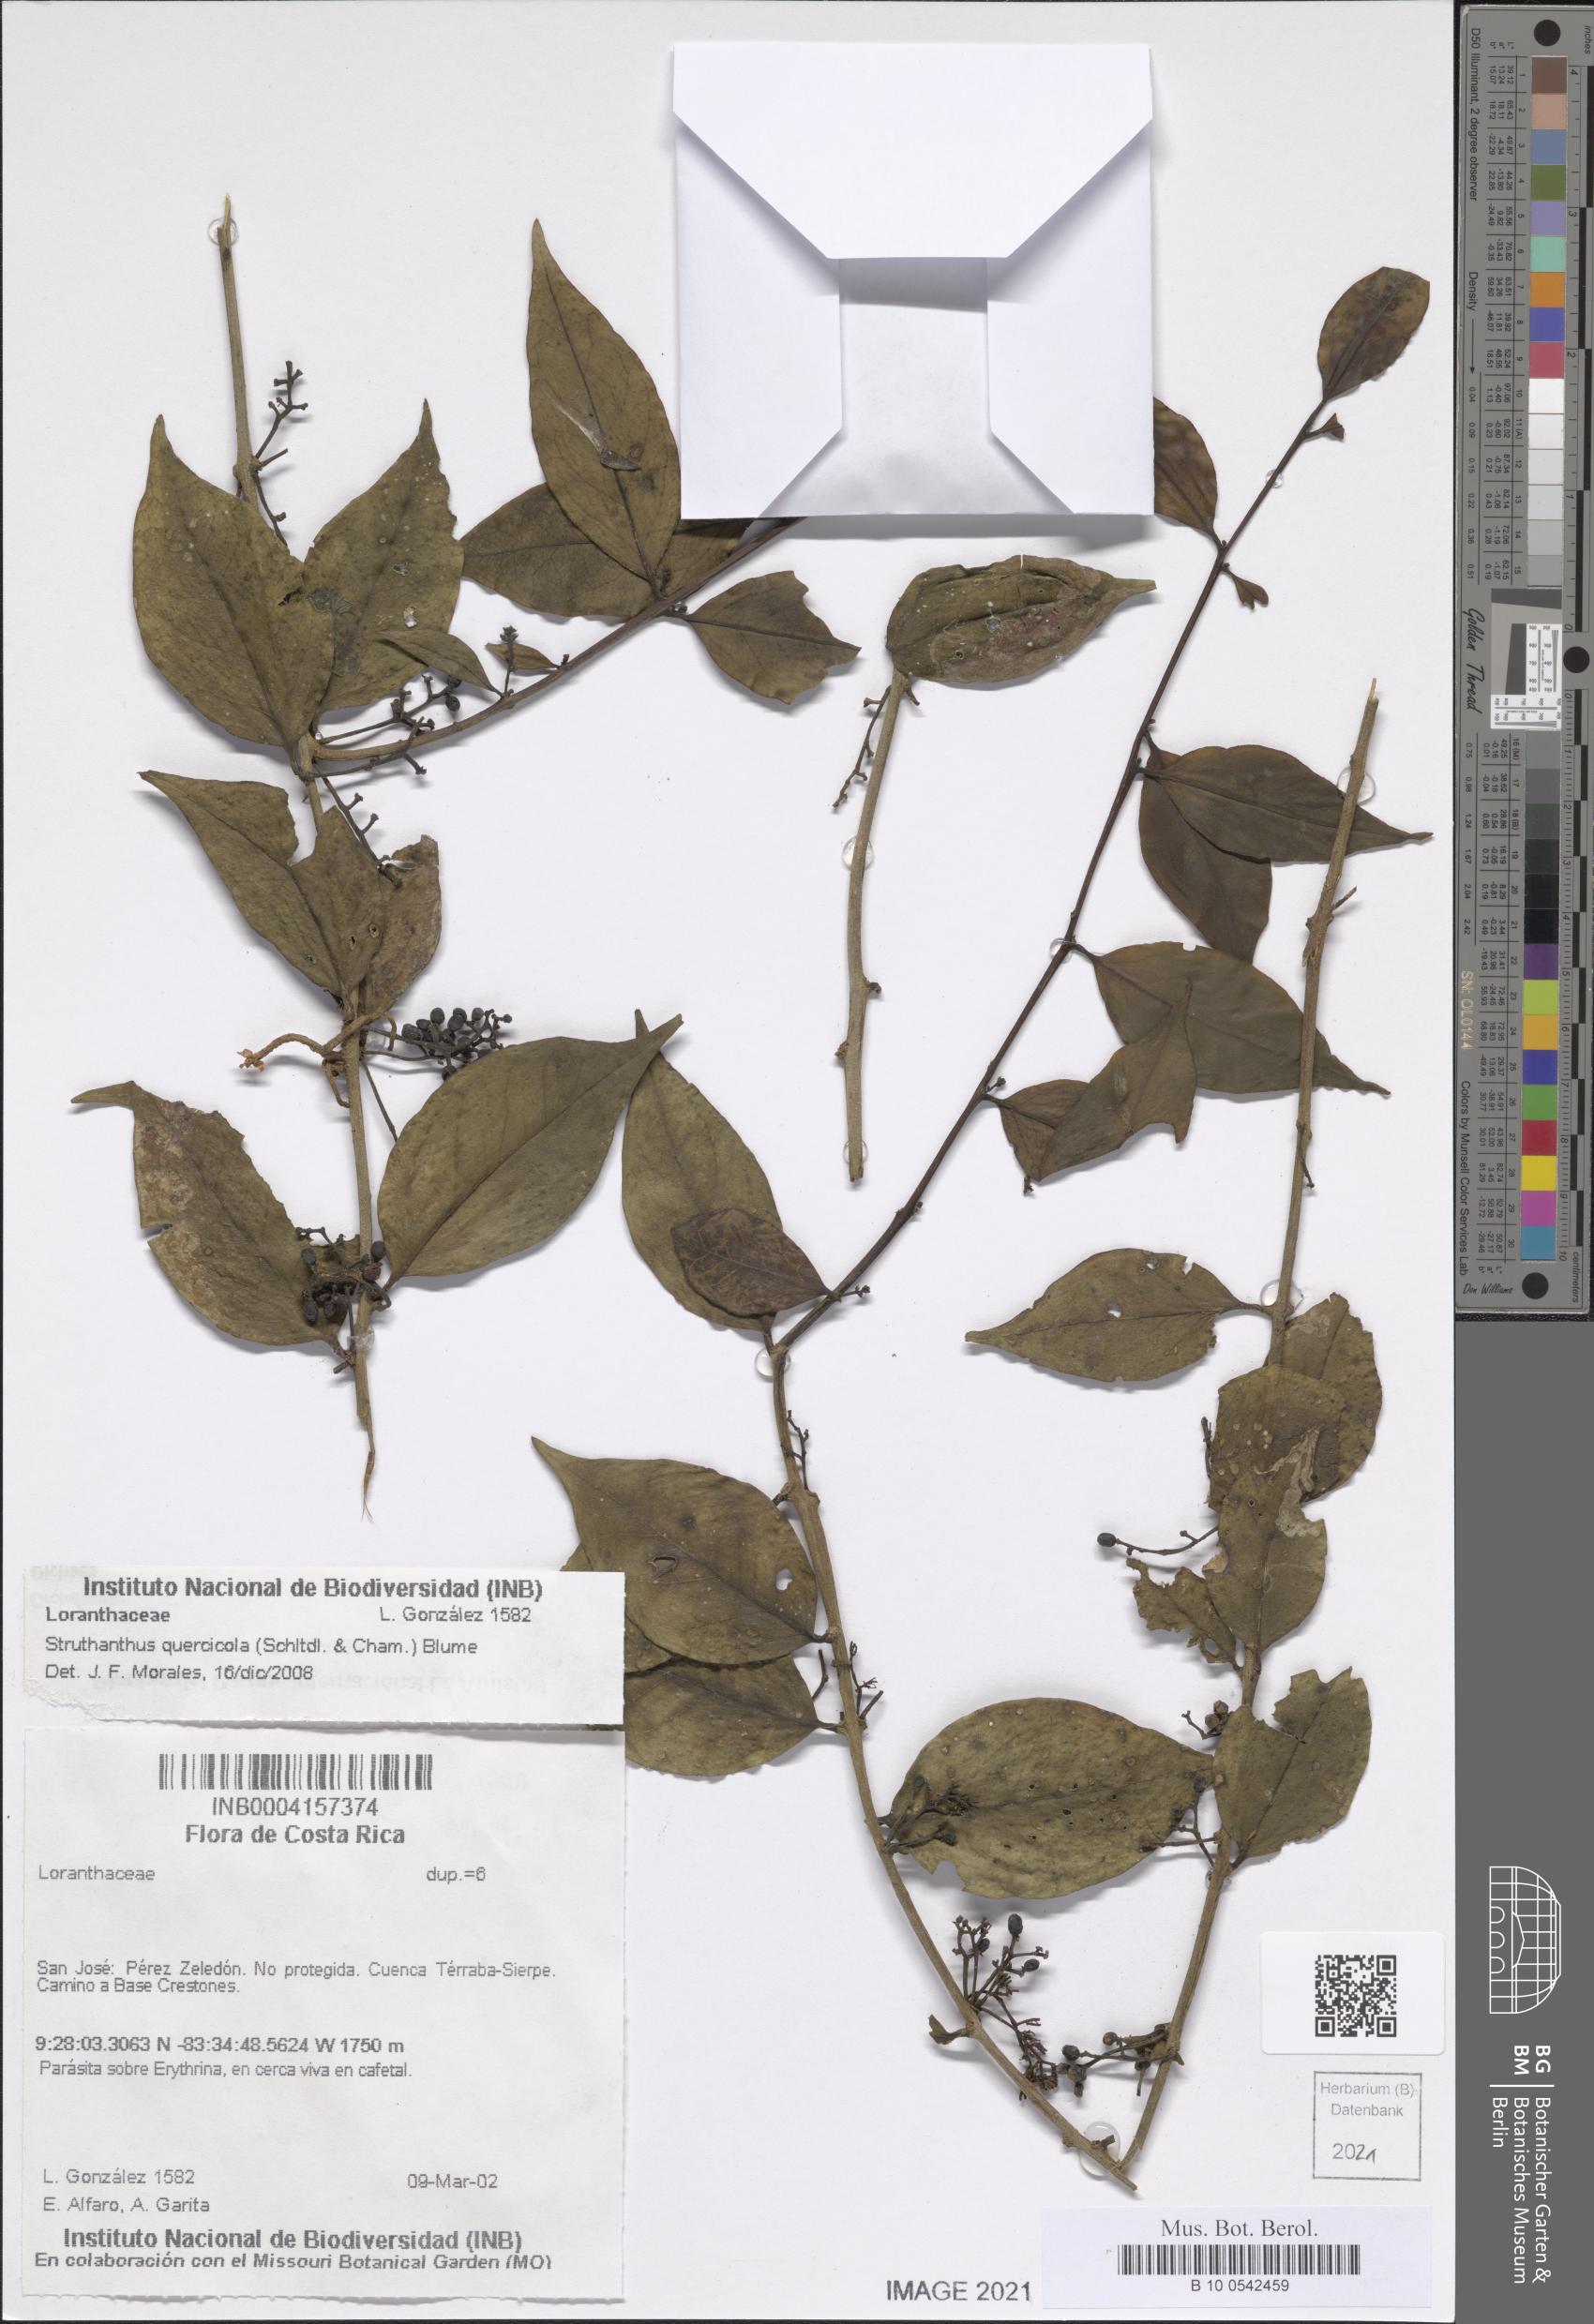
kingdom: Plantae
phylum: Tracheophyta
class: Magnoliopsida
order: Santalales
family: Loranthaceae
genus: Struthanthus
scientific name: Struthanthus quercicola
